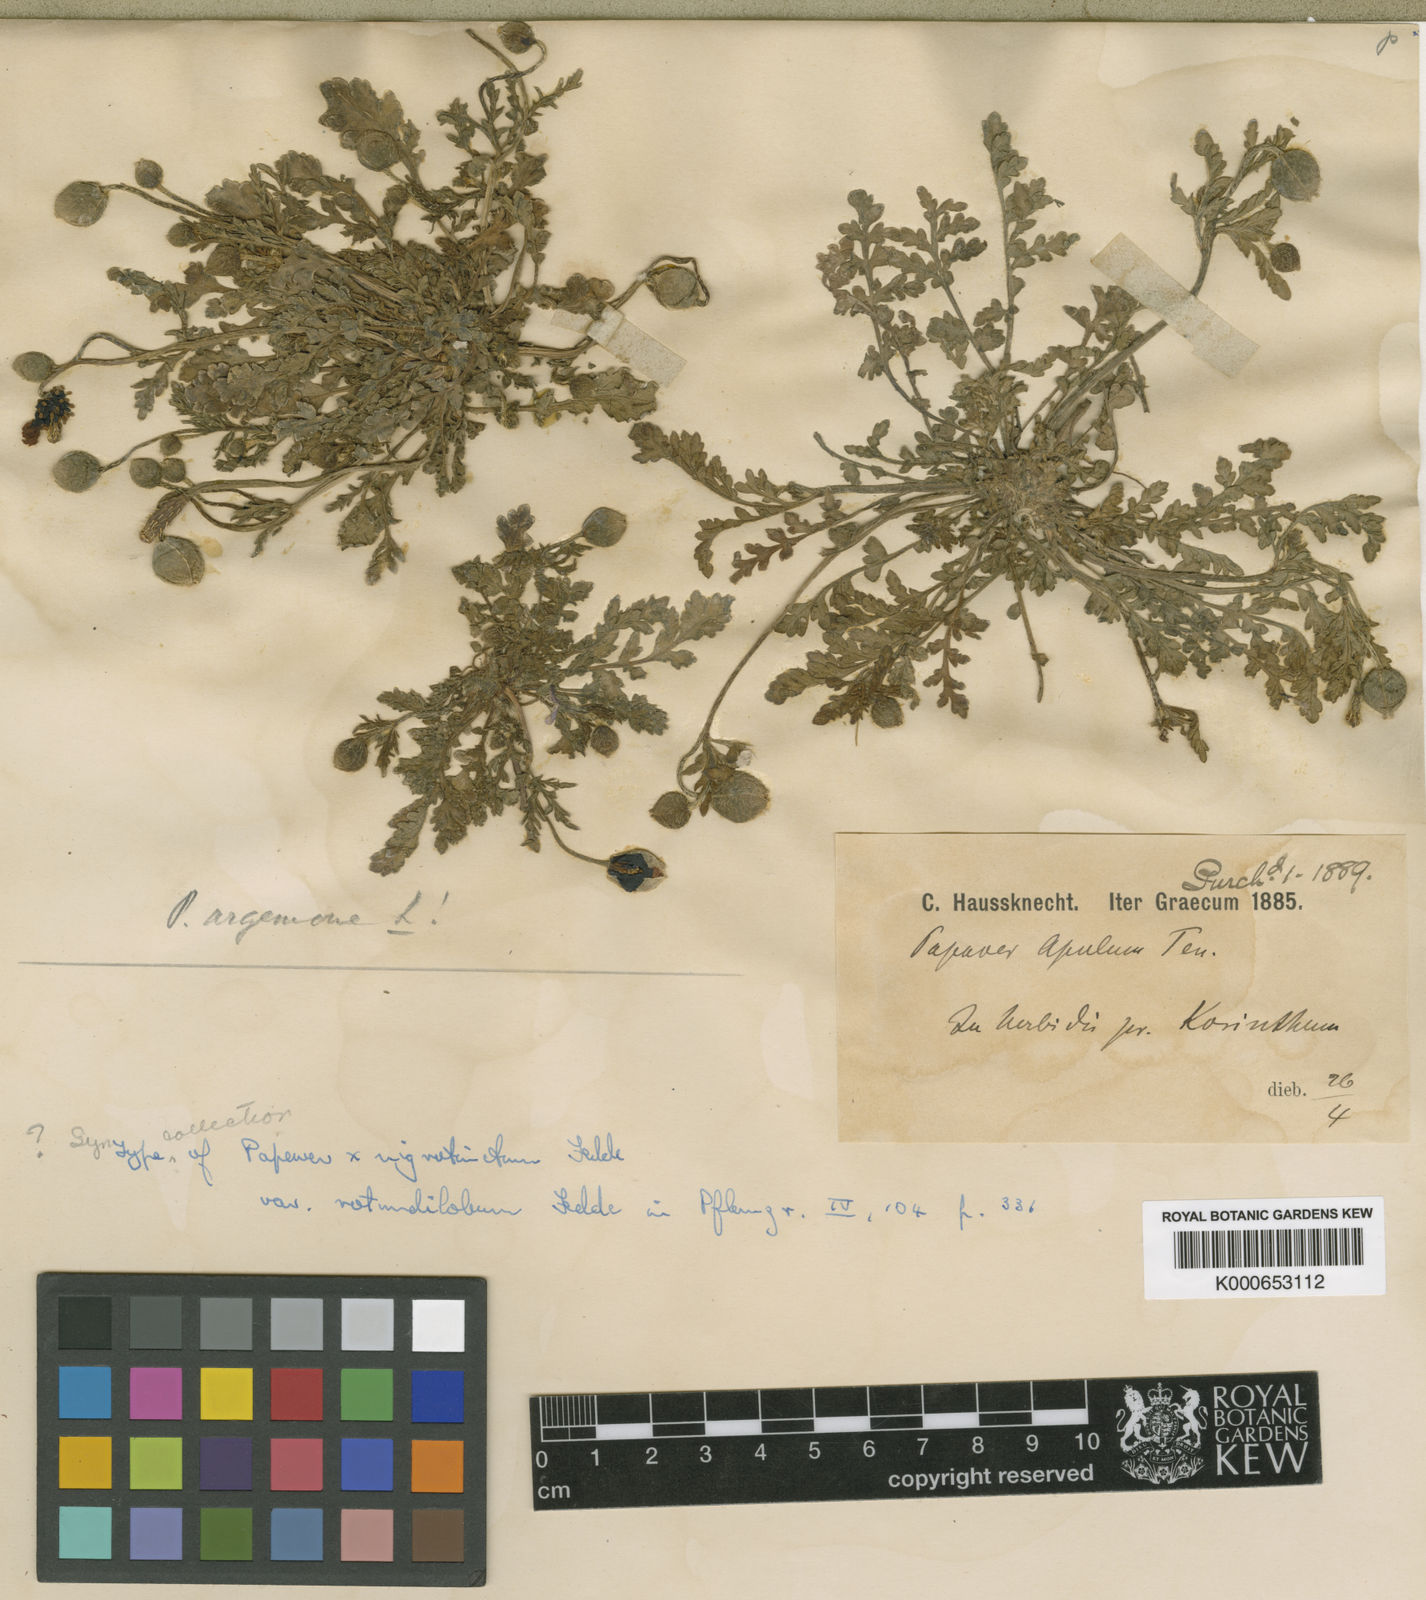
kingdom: Plantae
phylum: Tracheophyta
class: Magnoliopsida
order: Ranunculales
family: Papaveraceae
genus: Roemeria
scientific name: Roemeria nigrotincta
